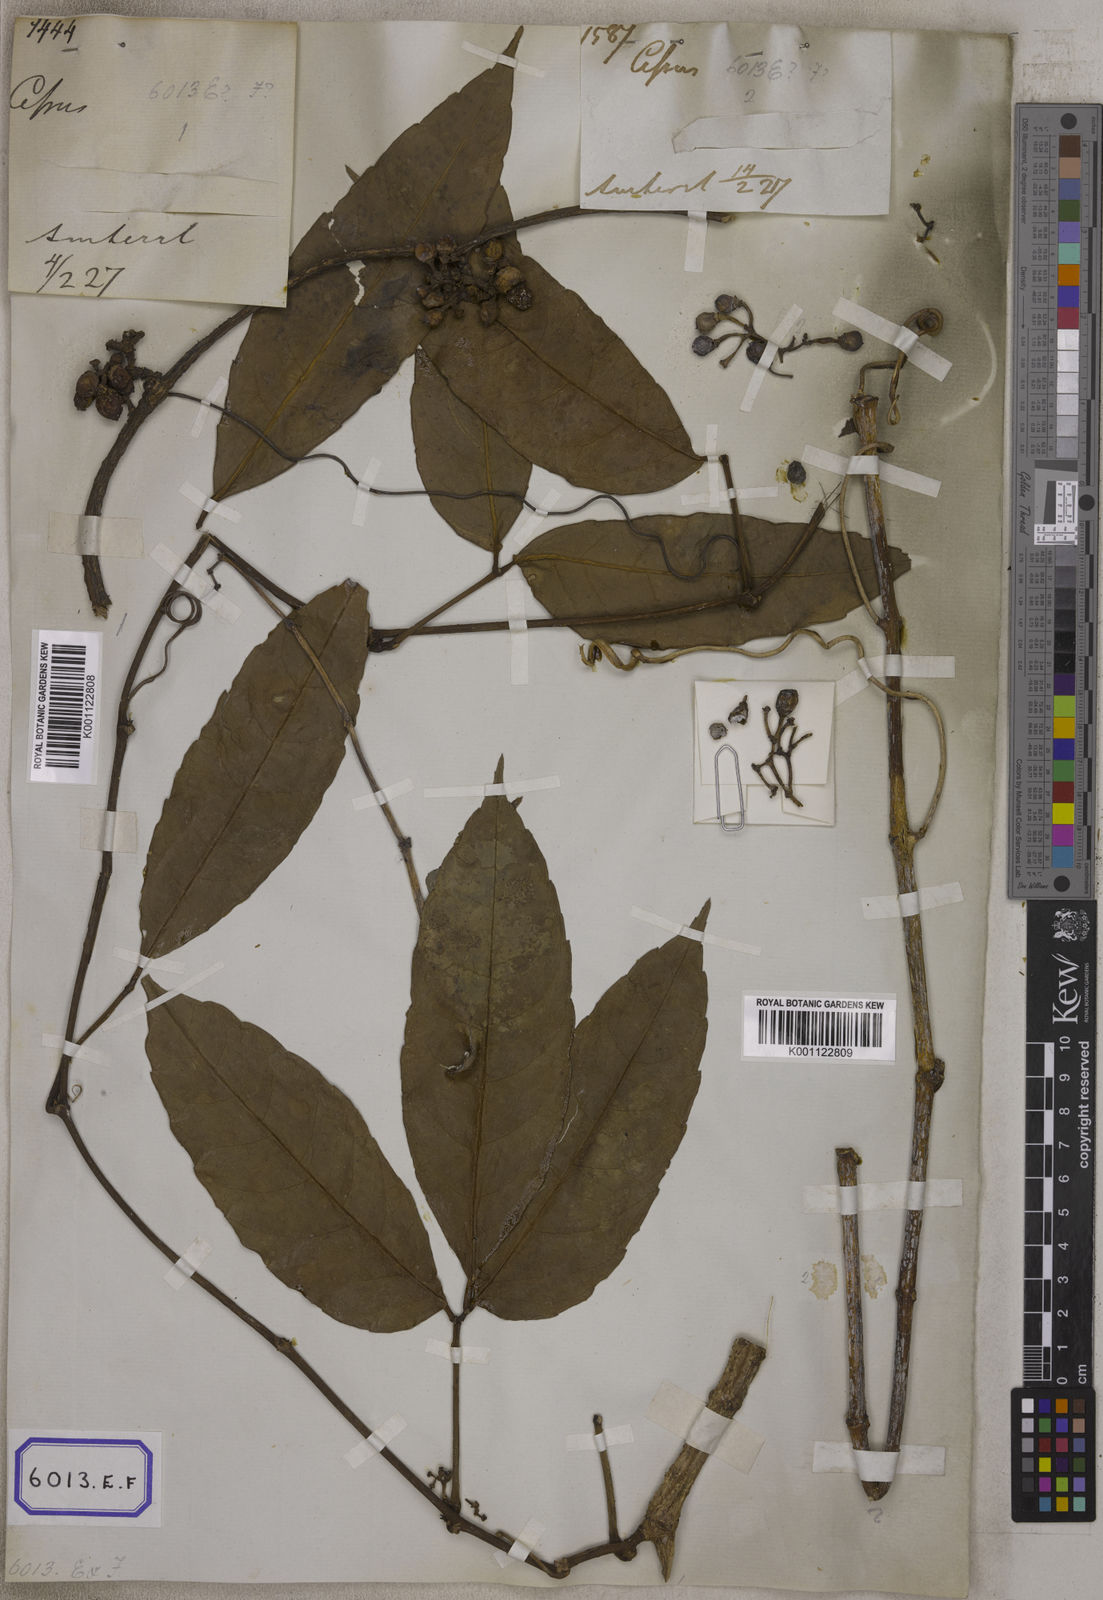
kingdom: Plantae
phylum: Tracheophyta
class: Magnoliopsida
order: Vitales
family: Vitaceae
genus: Vitis
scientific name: Vitis
